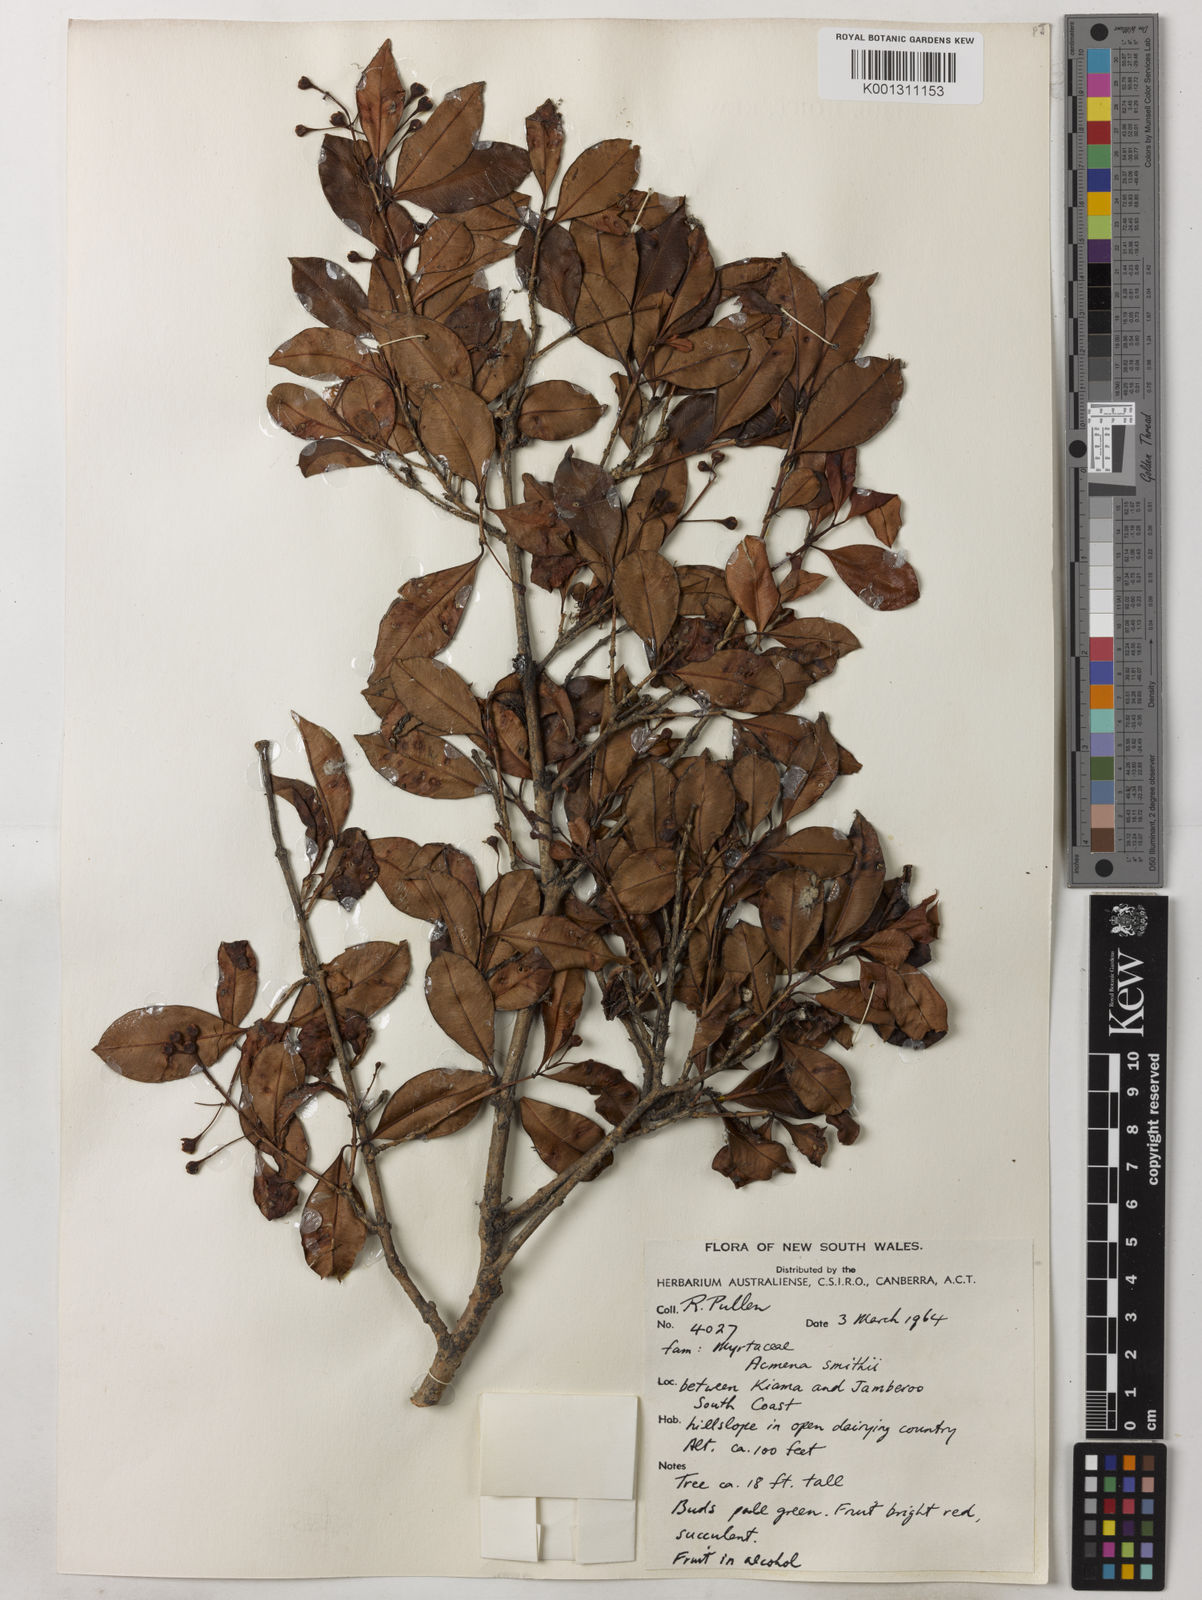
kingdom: Plantae
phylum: Tracheophyta
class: Magnoliopsida
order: Myrtales
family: Myrtaceae
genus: Syzygium
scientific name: Syzygium smithii
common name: Lilly-pilly
